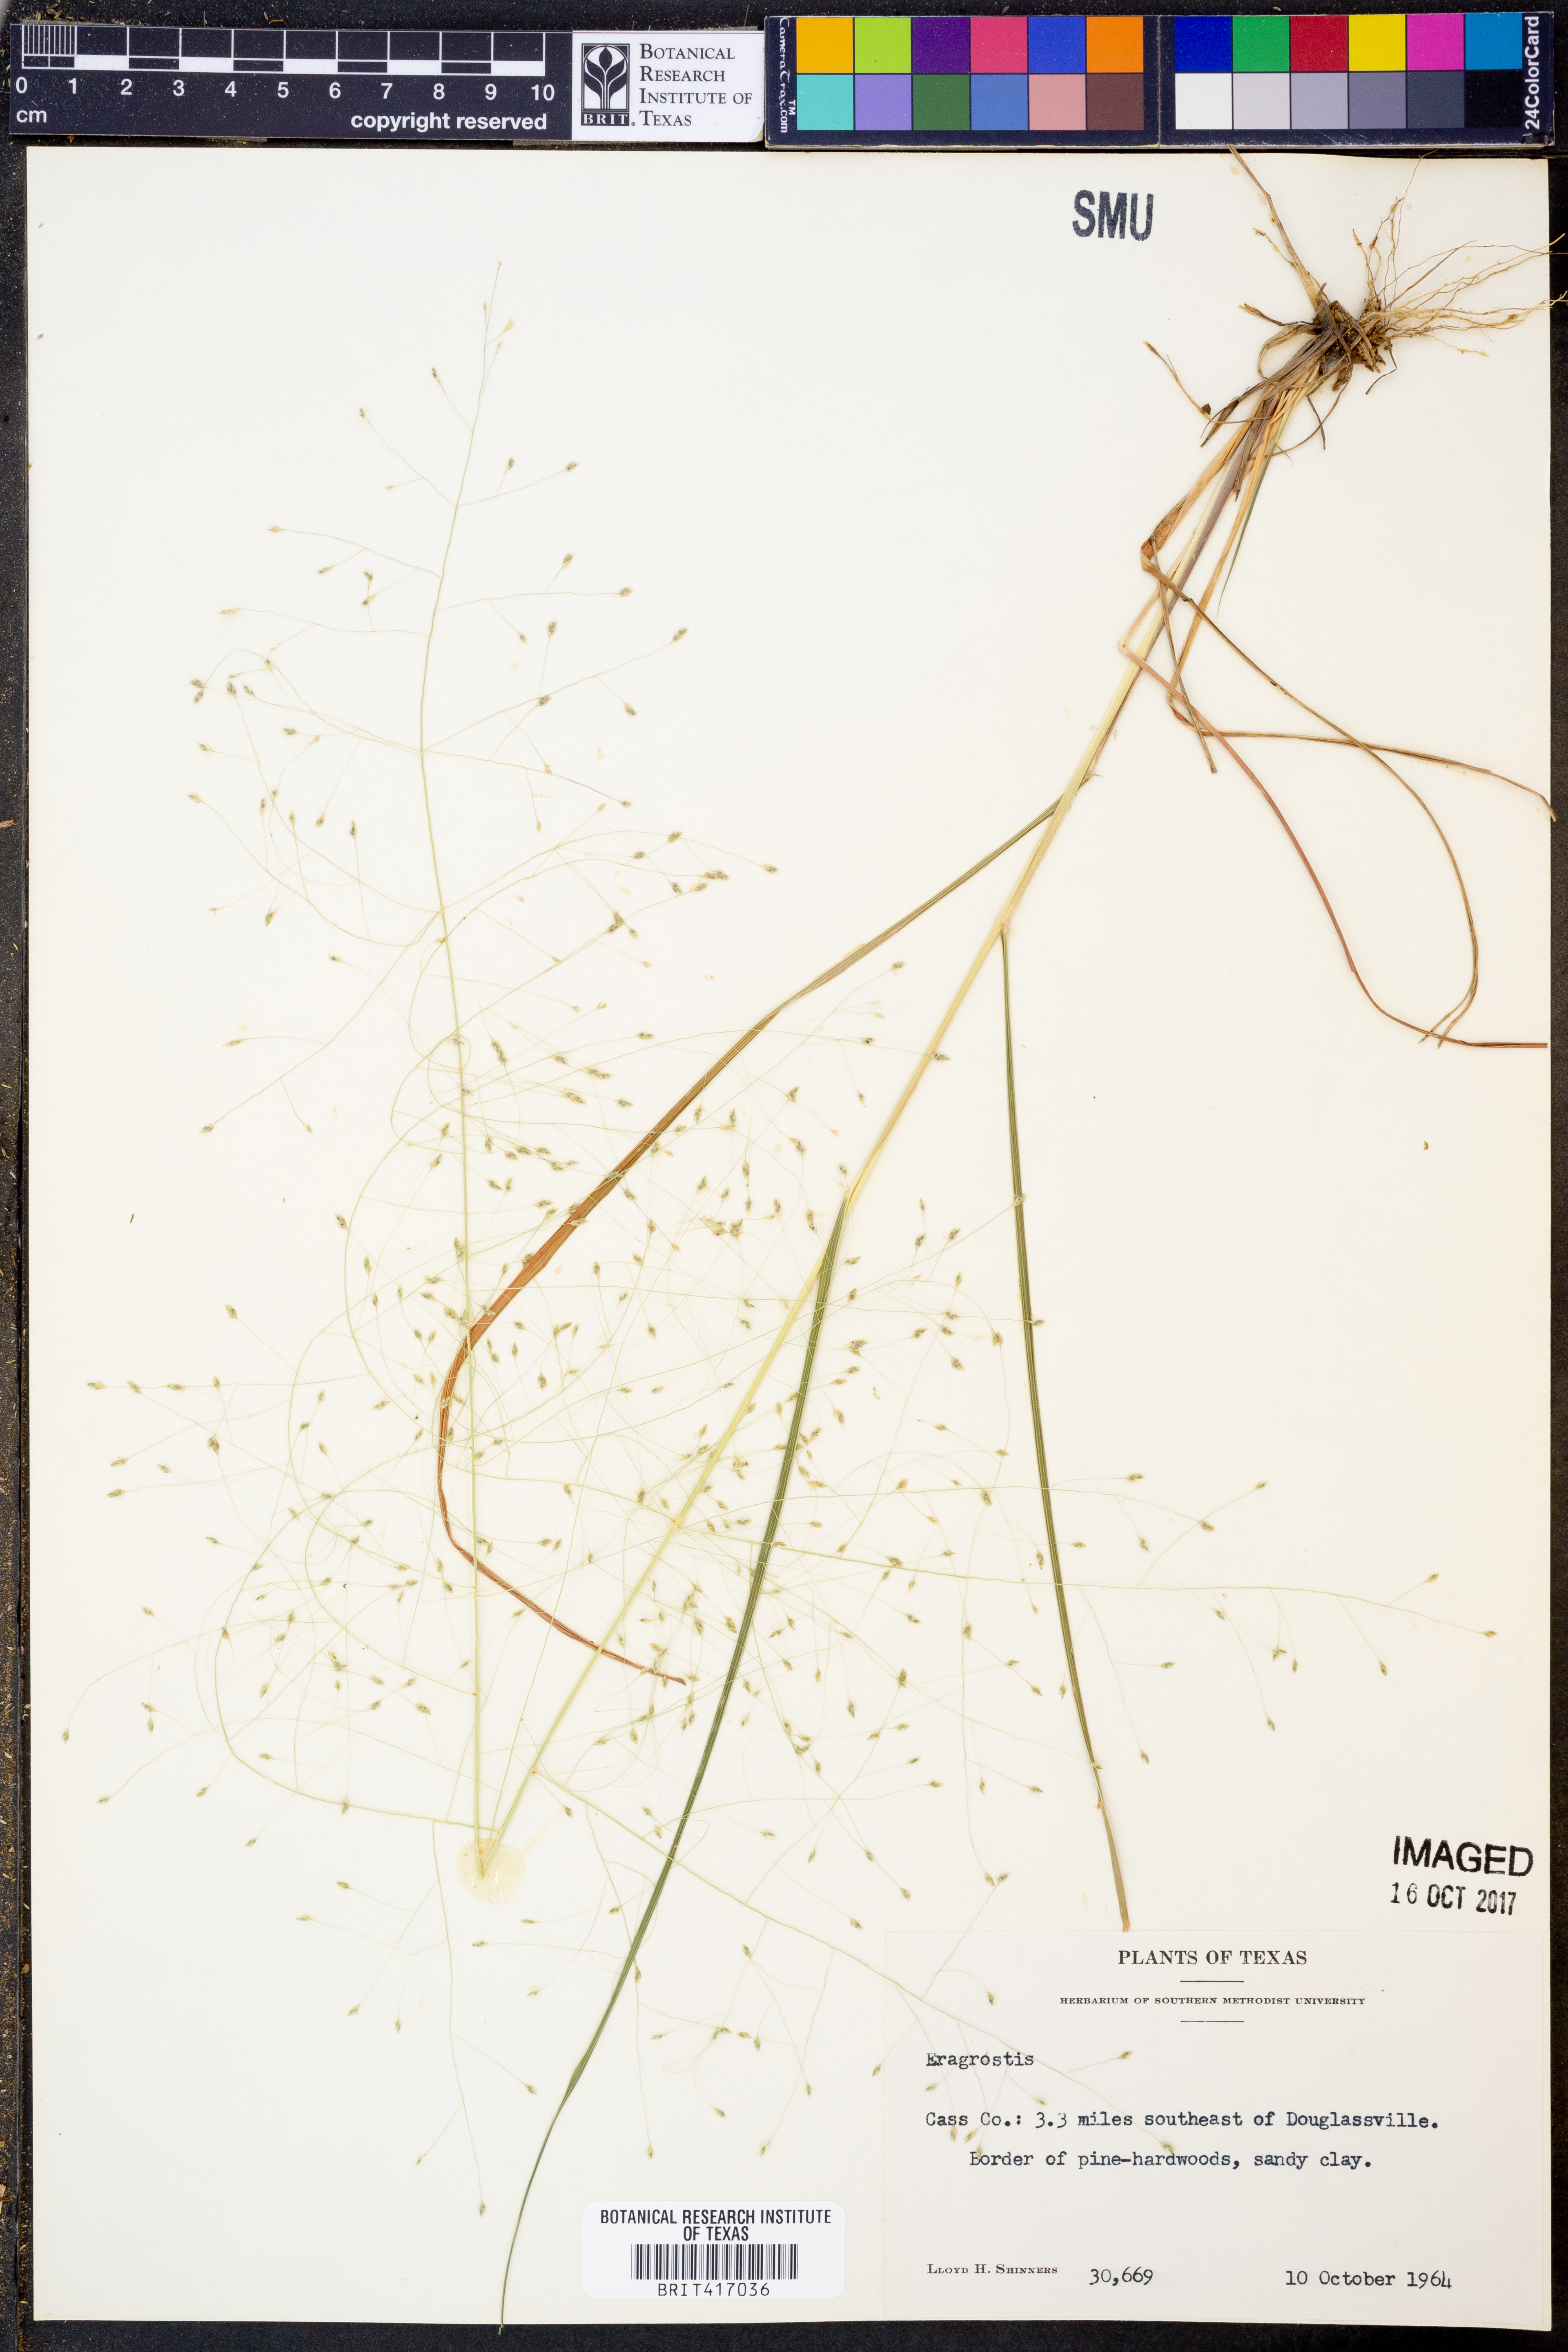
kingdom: Plantae
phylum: Tracheophyta
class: Liliopsida
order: Poales
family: Poaceae
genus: Eragrostis
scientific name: Eragrostis
